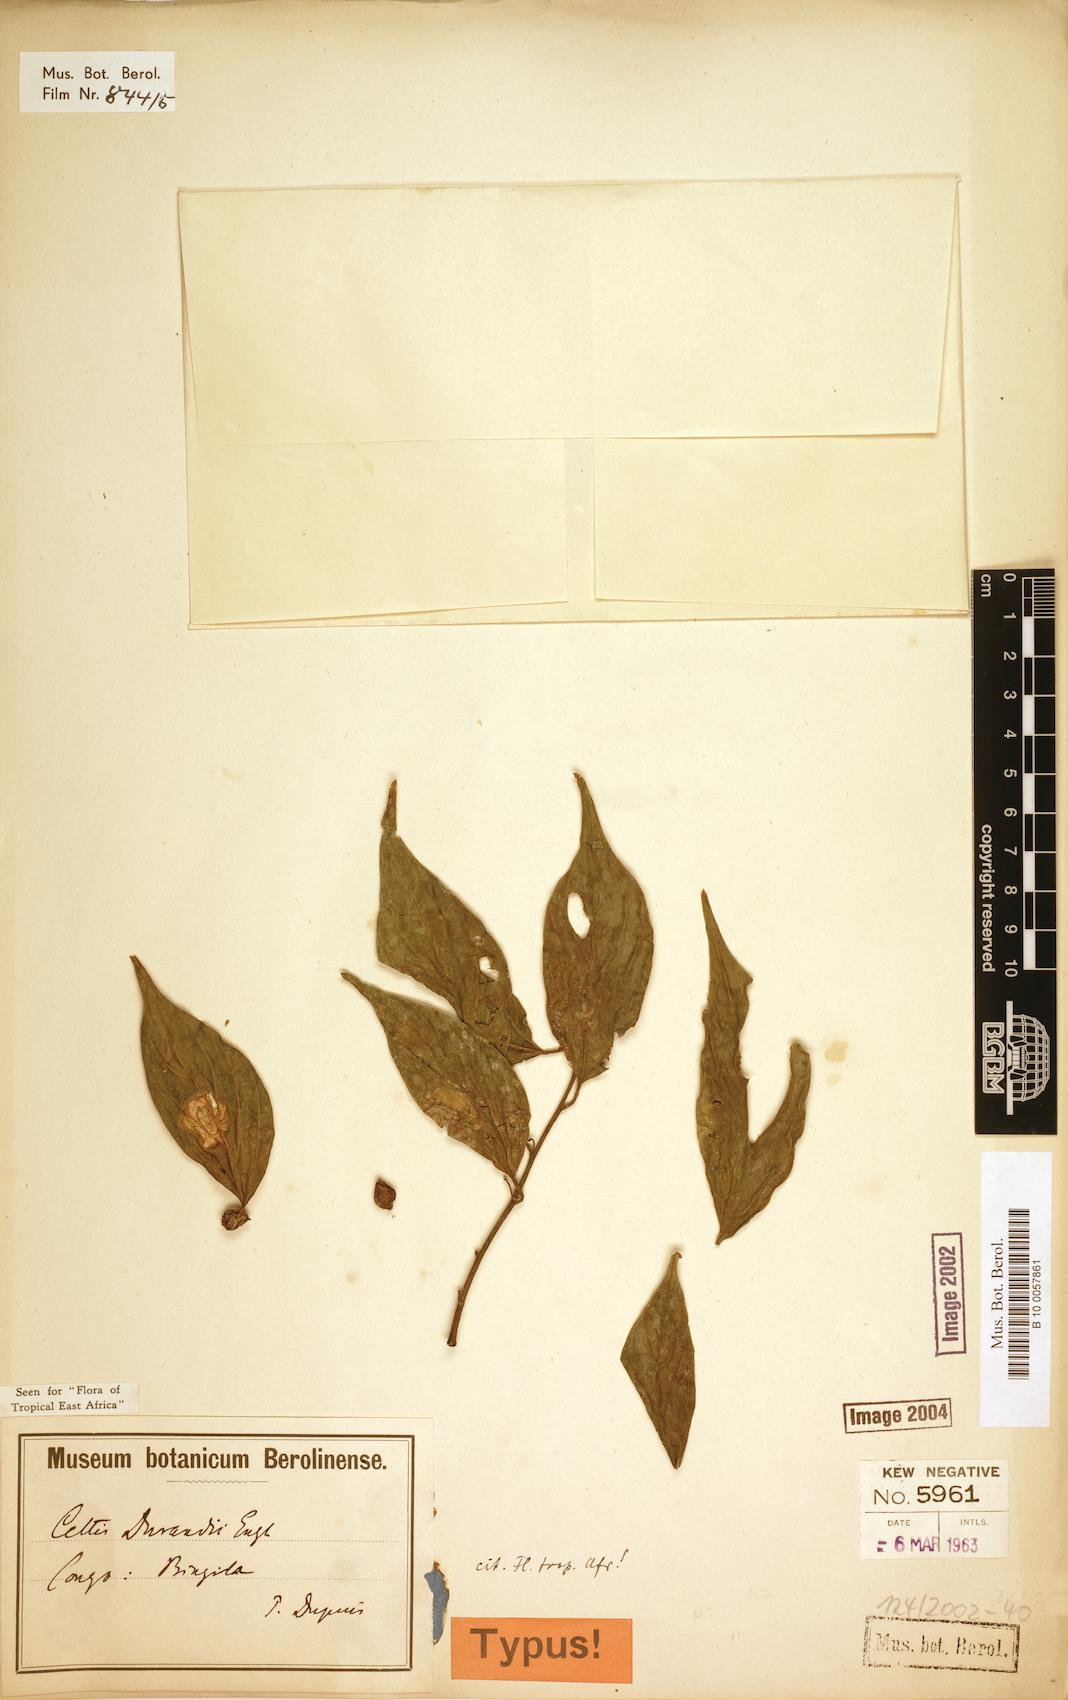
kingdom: Plantae
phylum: Tracheophyta
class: Magnoliopsida
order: Rosales
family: Cannabaceae
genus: Celtis
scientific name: Celtis gomphophylla
